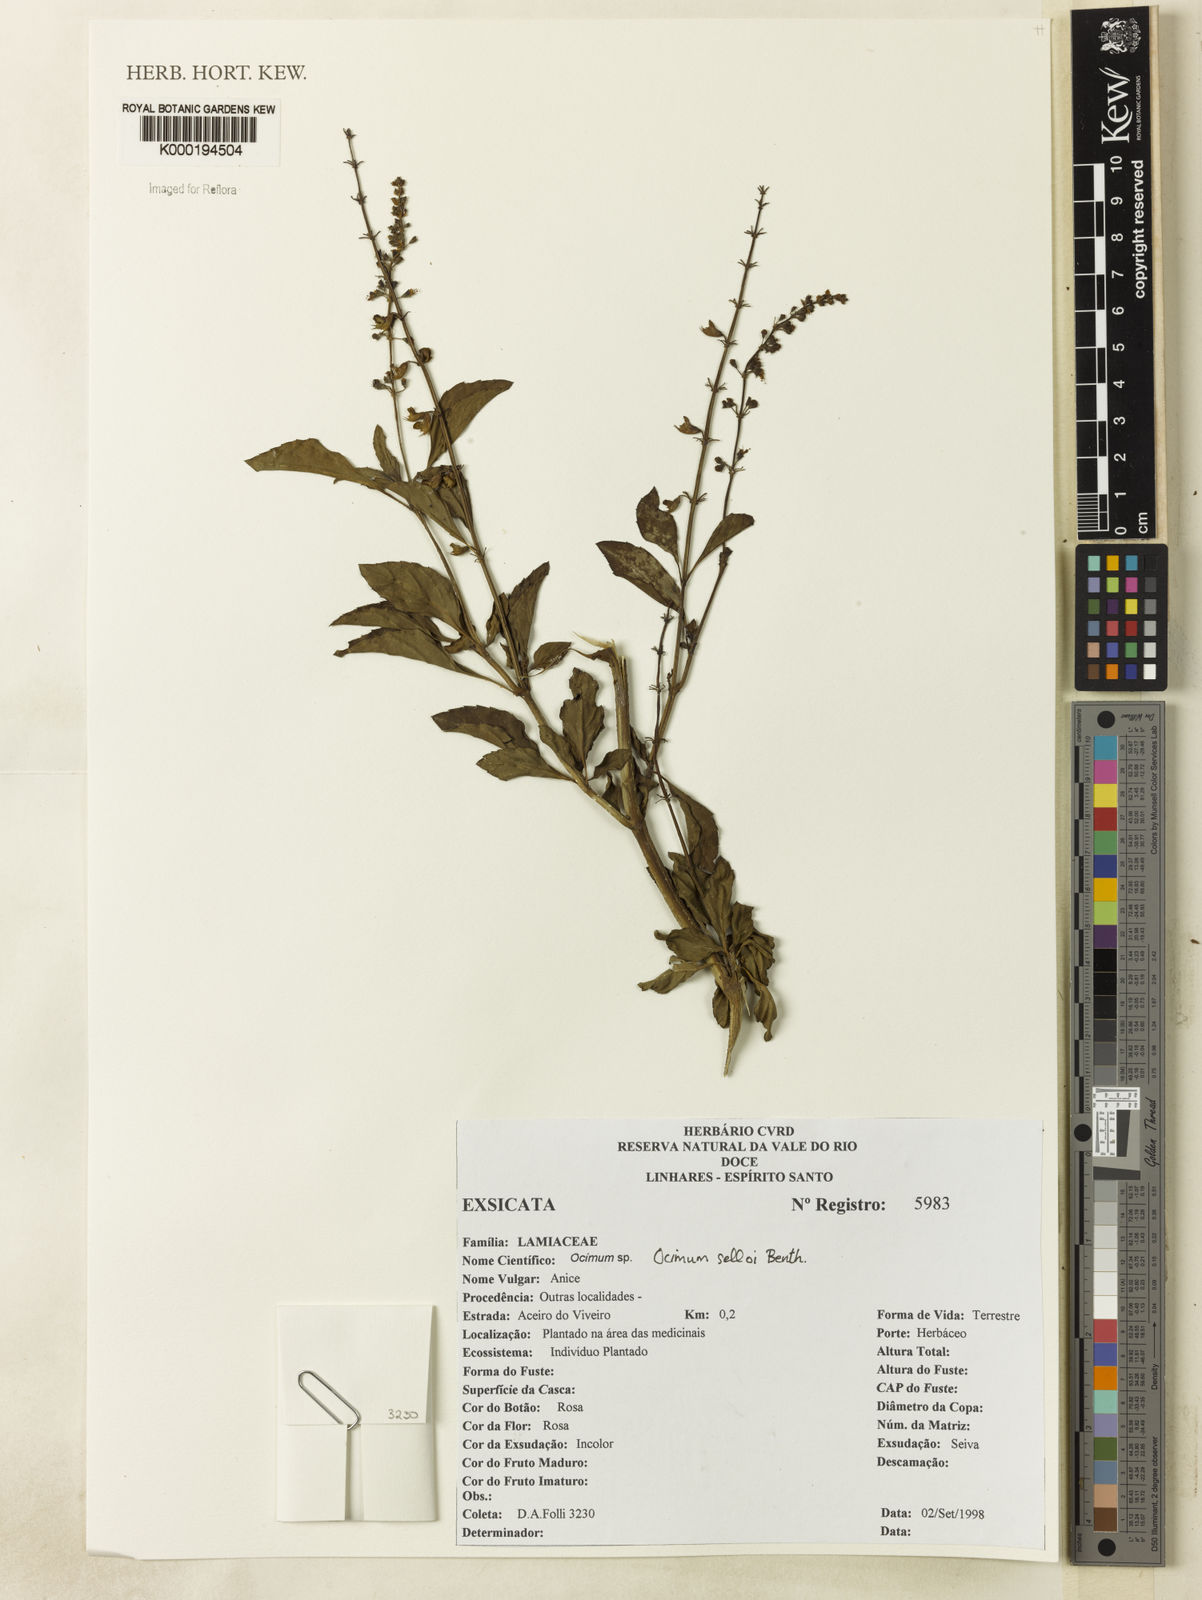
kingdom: Plantae
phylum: Tracheophyta
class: Magnoliopsida
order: Lamiales
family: Lamiaceae
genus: Ocimum
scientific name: Ocimum carnosum
